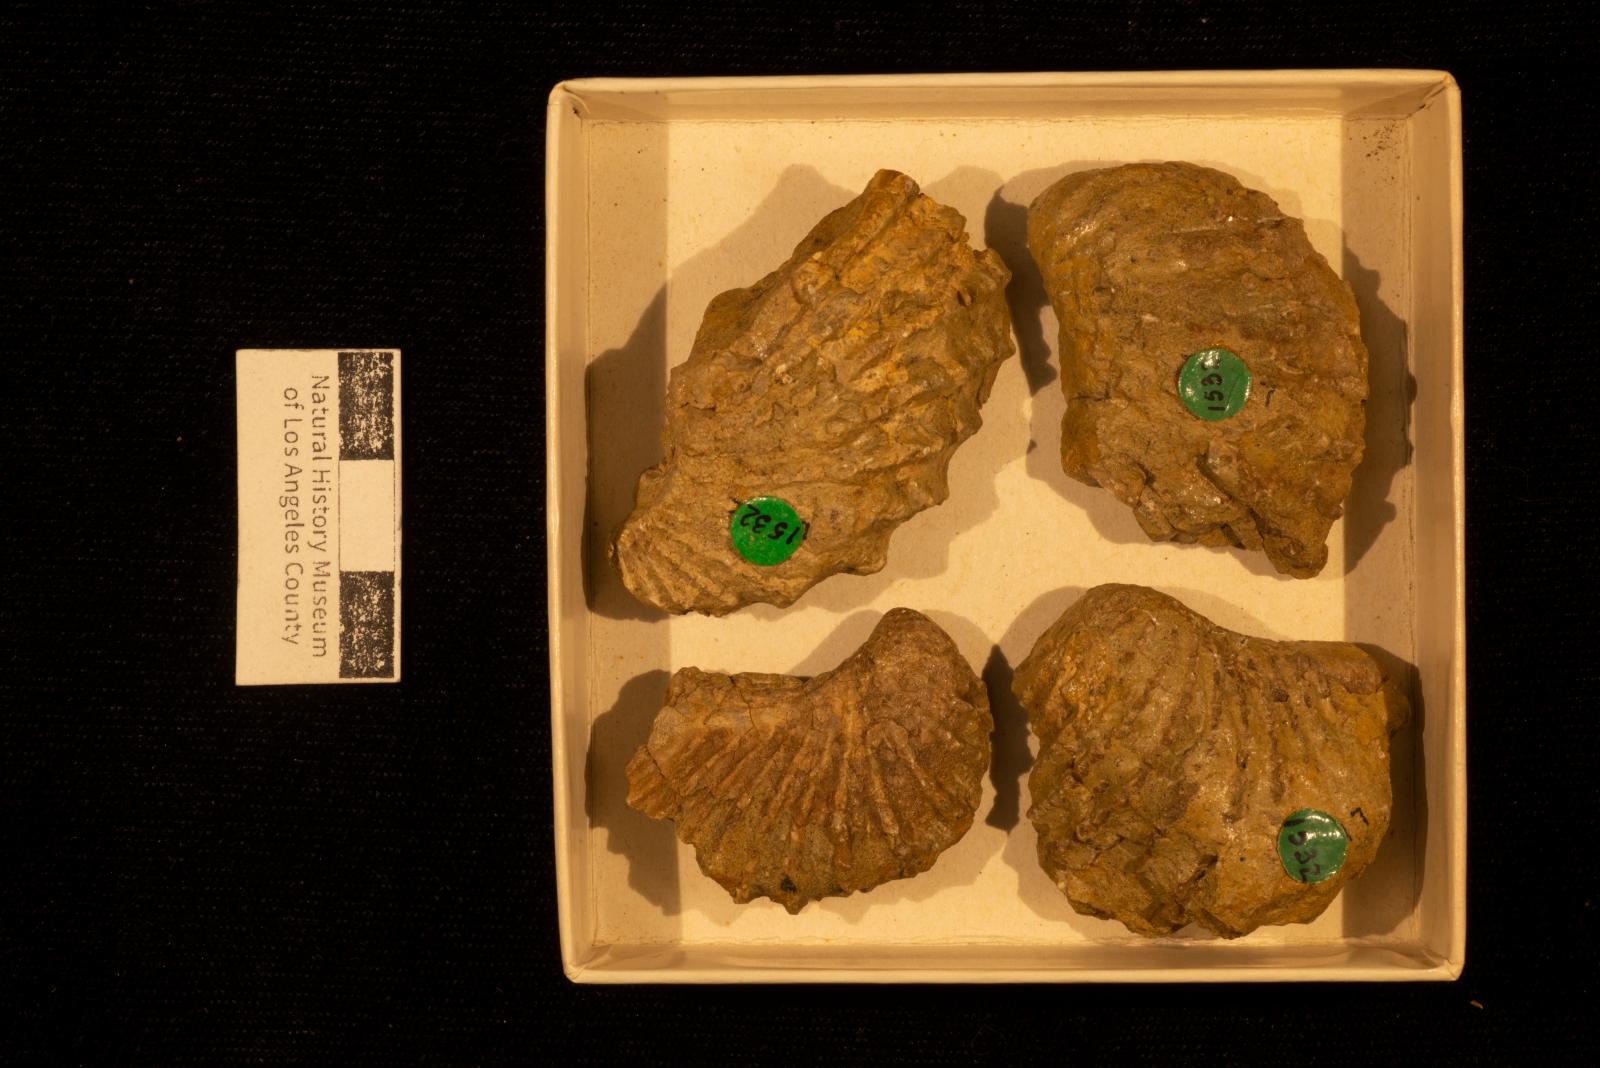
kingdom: Animalia
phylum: Mollusca
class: Bivalvia
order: Trigoniida
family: Pterotrigoniidae
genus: Notoscabrotrigonia
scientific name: Notoscabrotrigonia klamathonia
